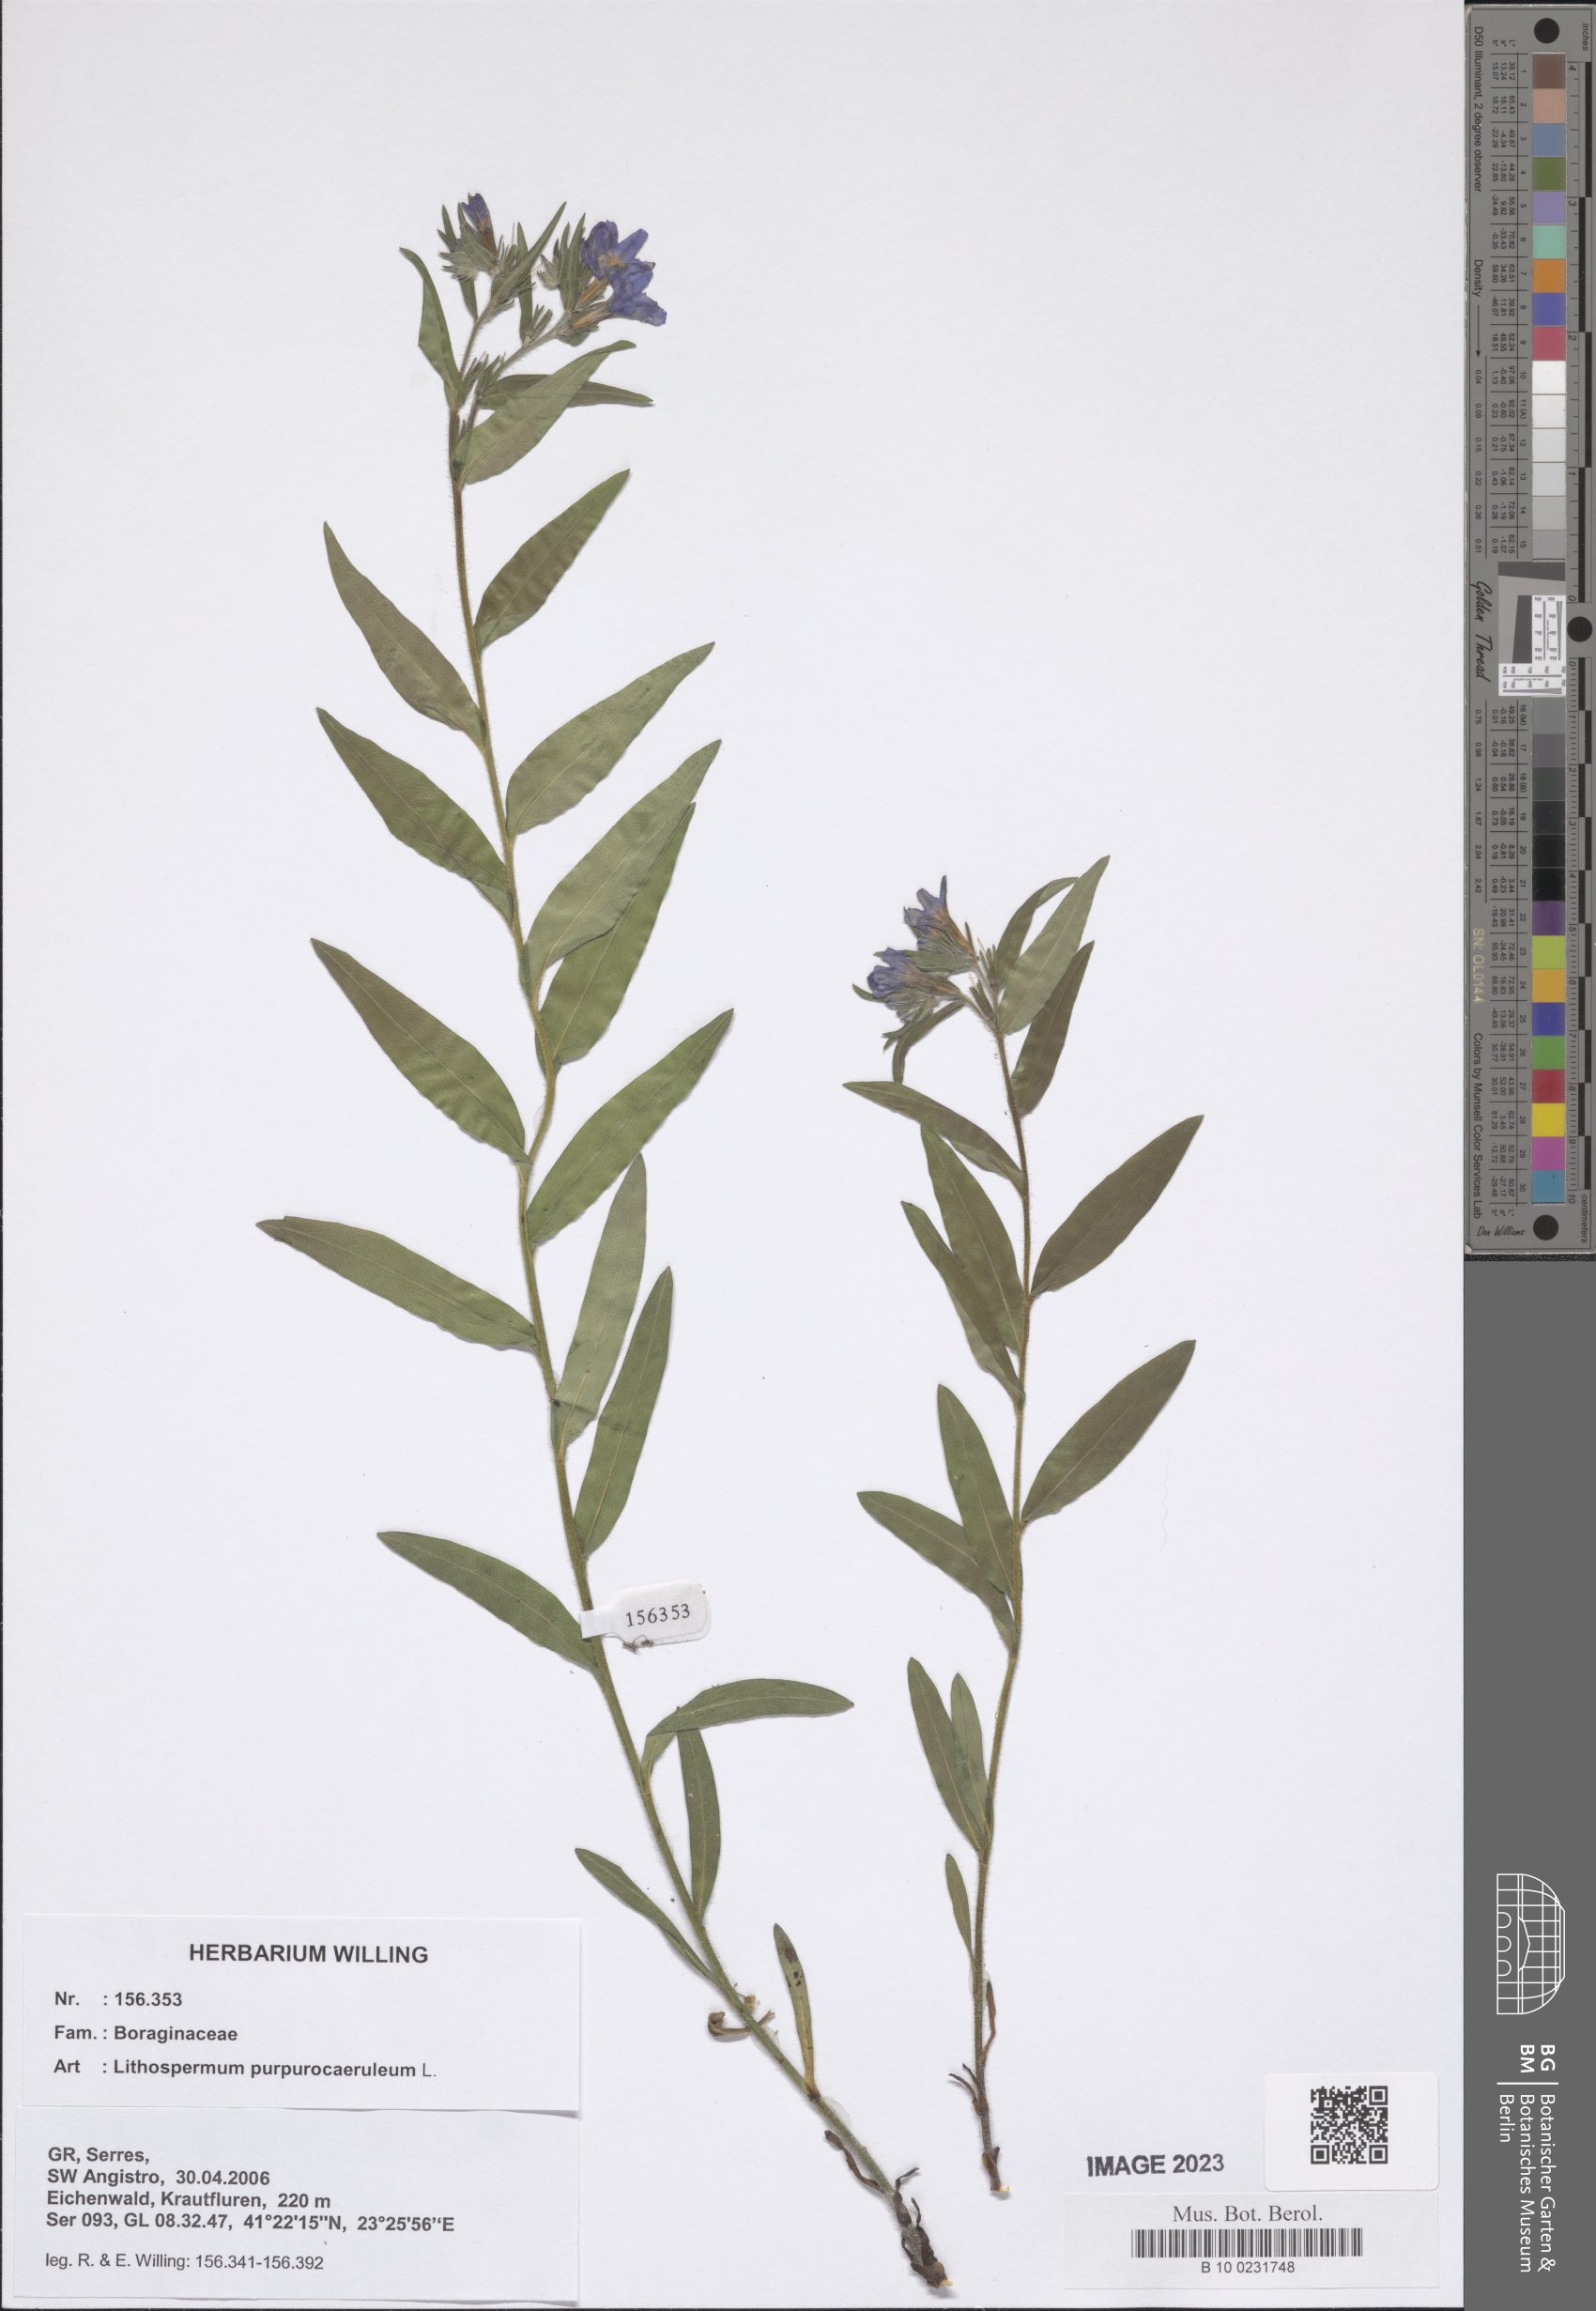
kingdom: Plantae
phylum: Tracheophyta
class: Magnoliopsida
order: Boraginales
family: Boraginaceae
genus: Aegonychon
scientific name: Aegonychon purpurocaeruleum
